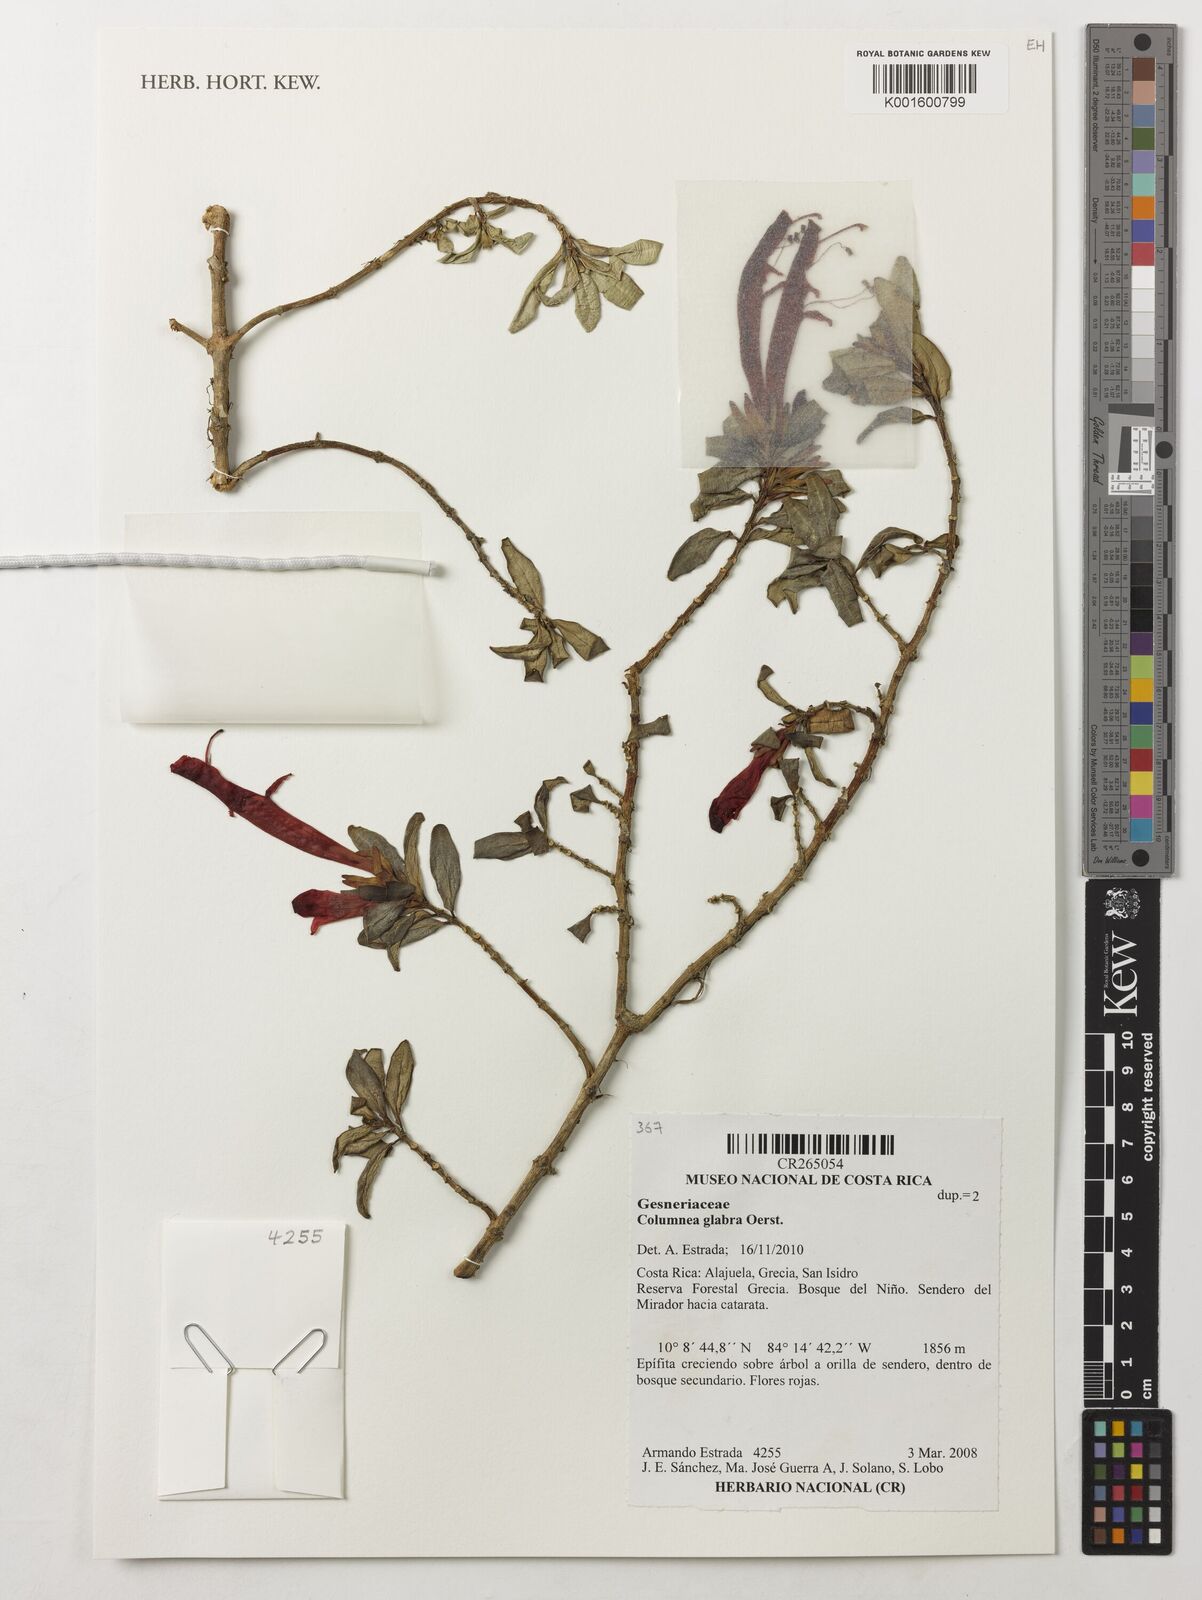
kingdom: Plantae
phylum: Tracheophyta
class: Magnoliopsida
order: Lamiales
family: Gesneriaceae
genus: Columnea
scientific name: Columnea glabra
